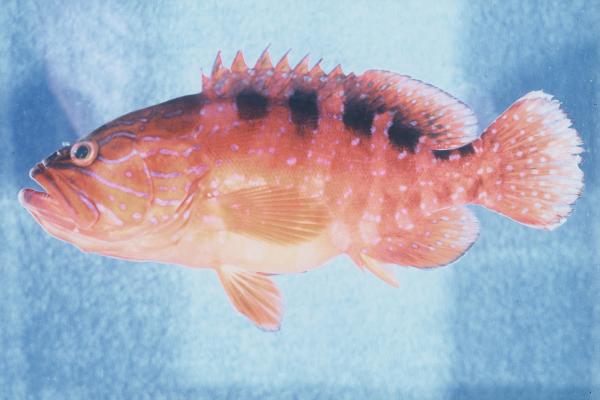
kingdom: Animalia
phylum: Chordata
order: Perciformes
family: Serranidae
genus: Cephalopholis
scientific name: Cephalopholis sexmaculata
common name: Sixblotch hind
